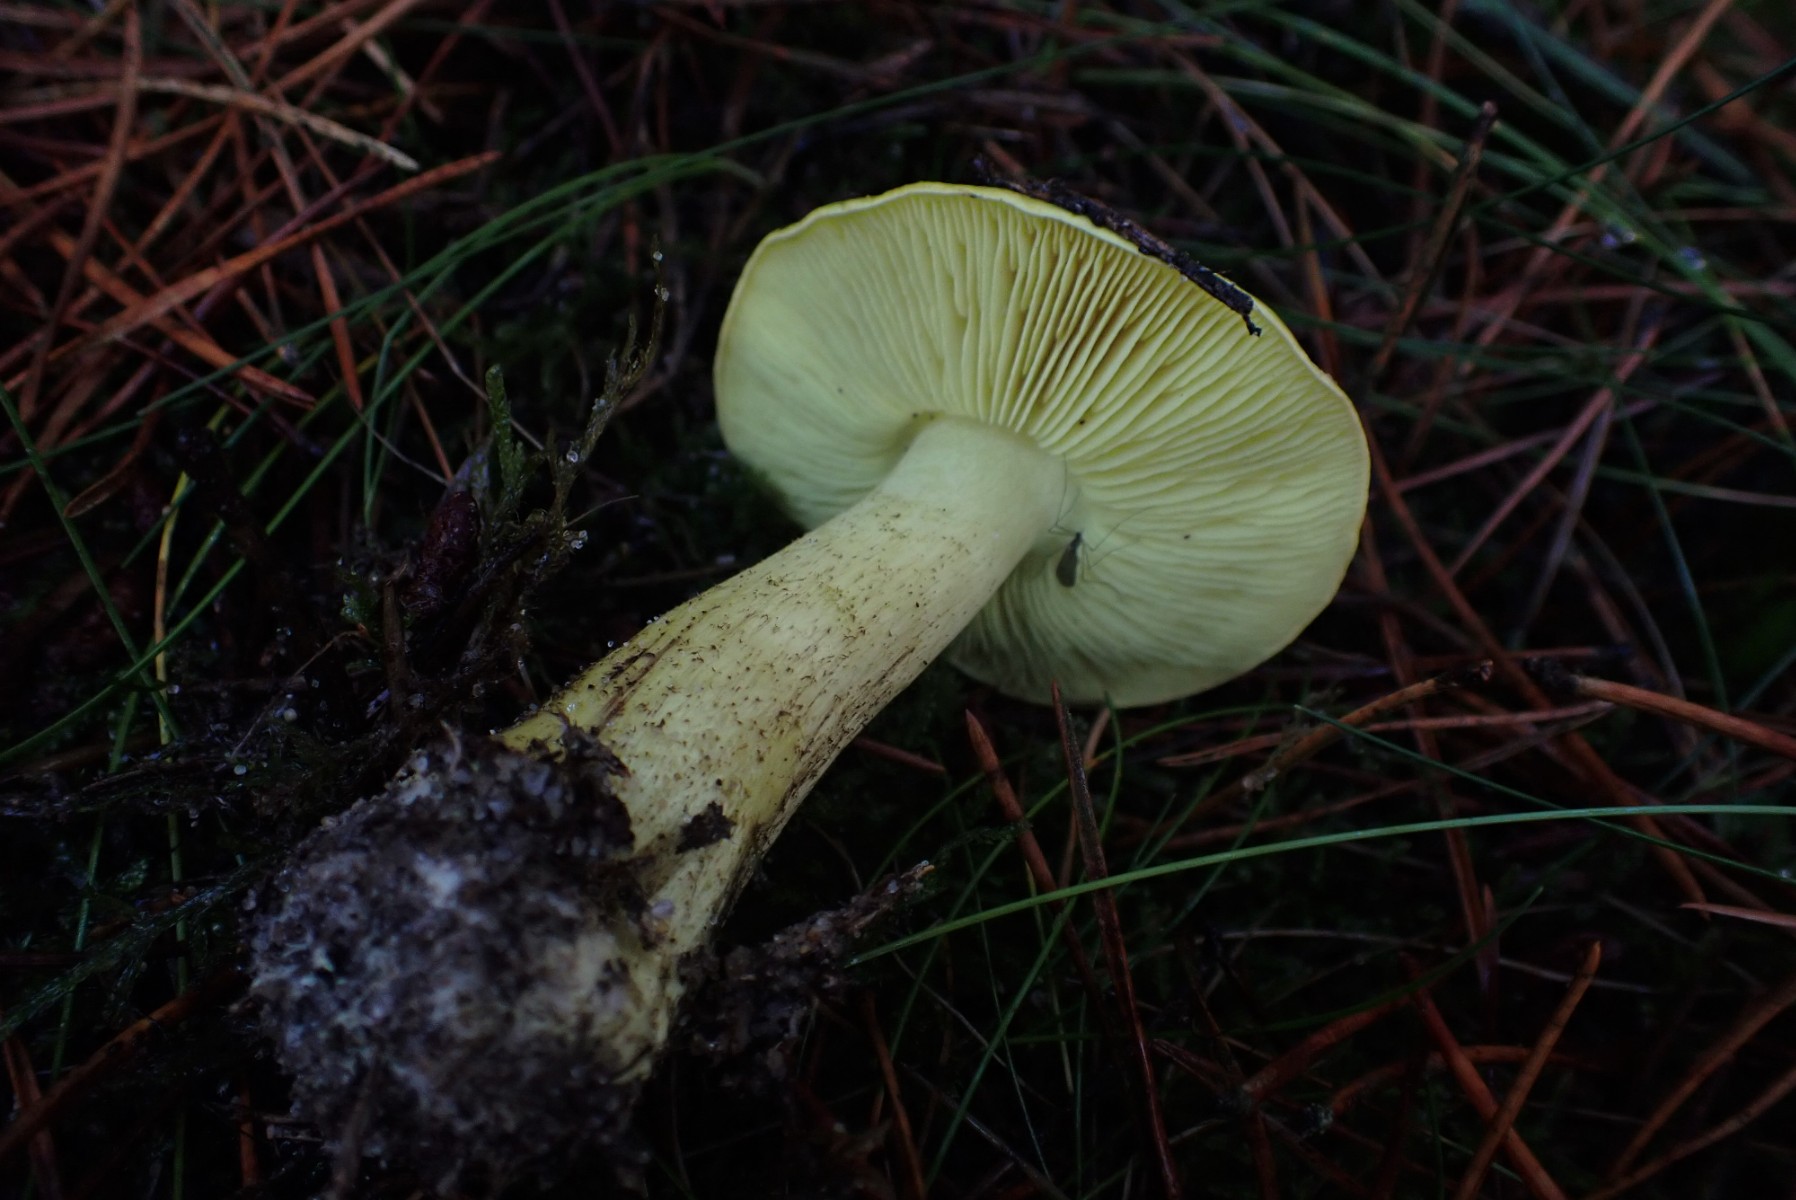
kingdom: Fungi
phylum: Basidiomycota
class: Agaricomycetes
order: Agaricales
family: Tricholomataceae
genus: Tricholoma
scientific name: Tricholoma equestre
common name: ægte ridderhat
